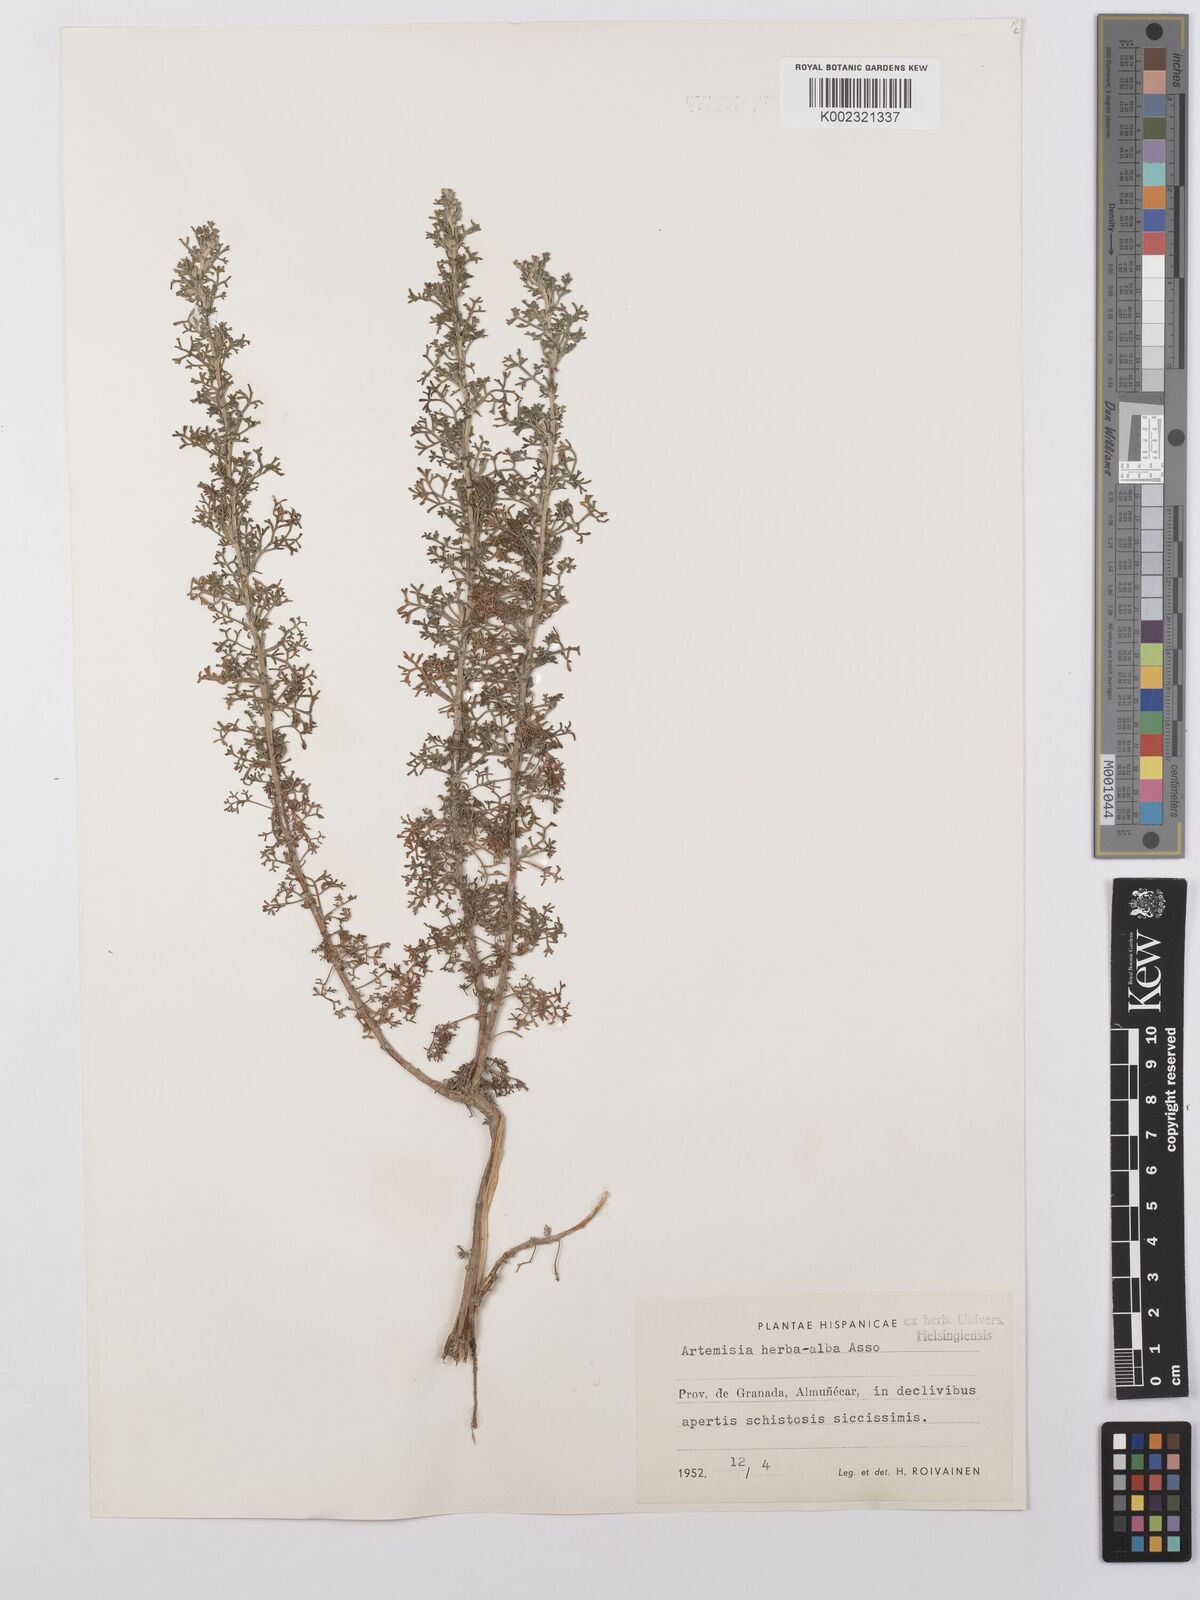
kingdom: Plantae
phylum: Tracheophyta
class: Magnoliopsida
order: Asterales
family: Asteraceae
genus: Artemisia
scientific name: Artemisia herba-alba
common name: White wormwood
